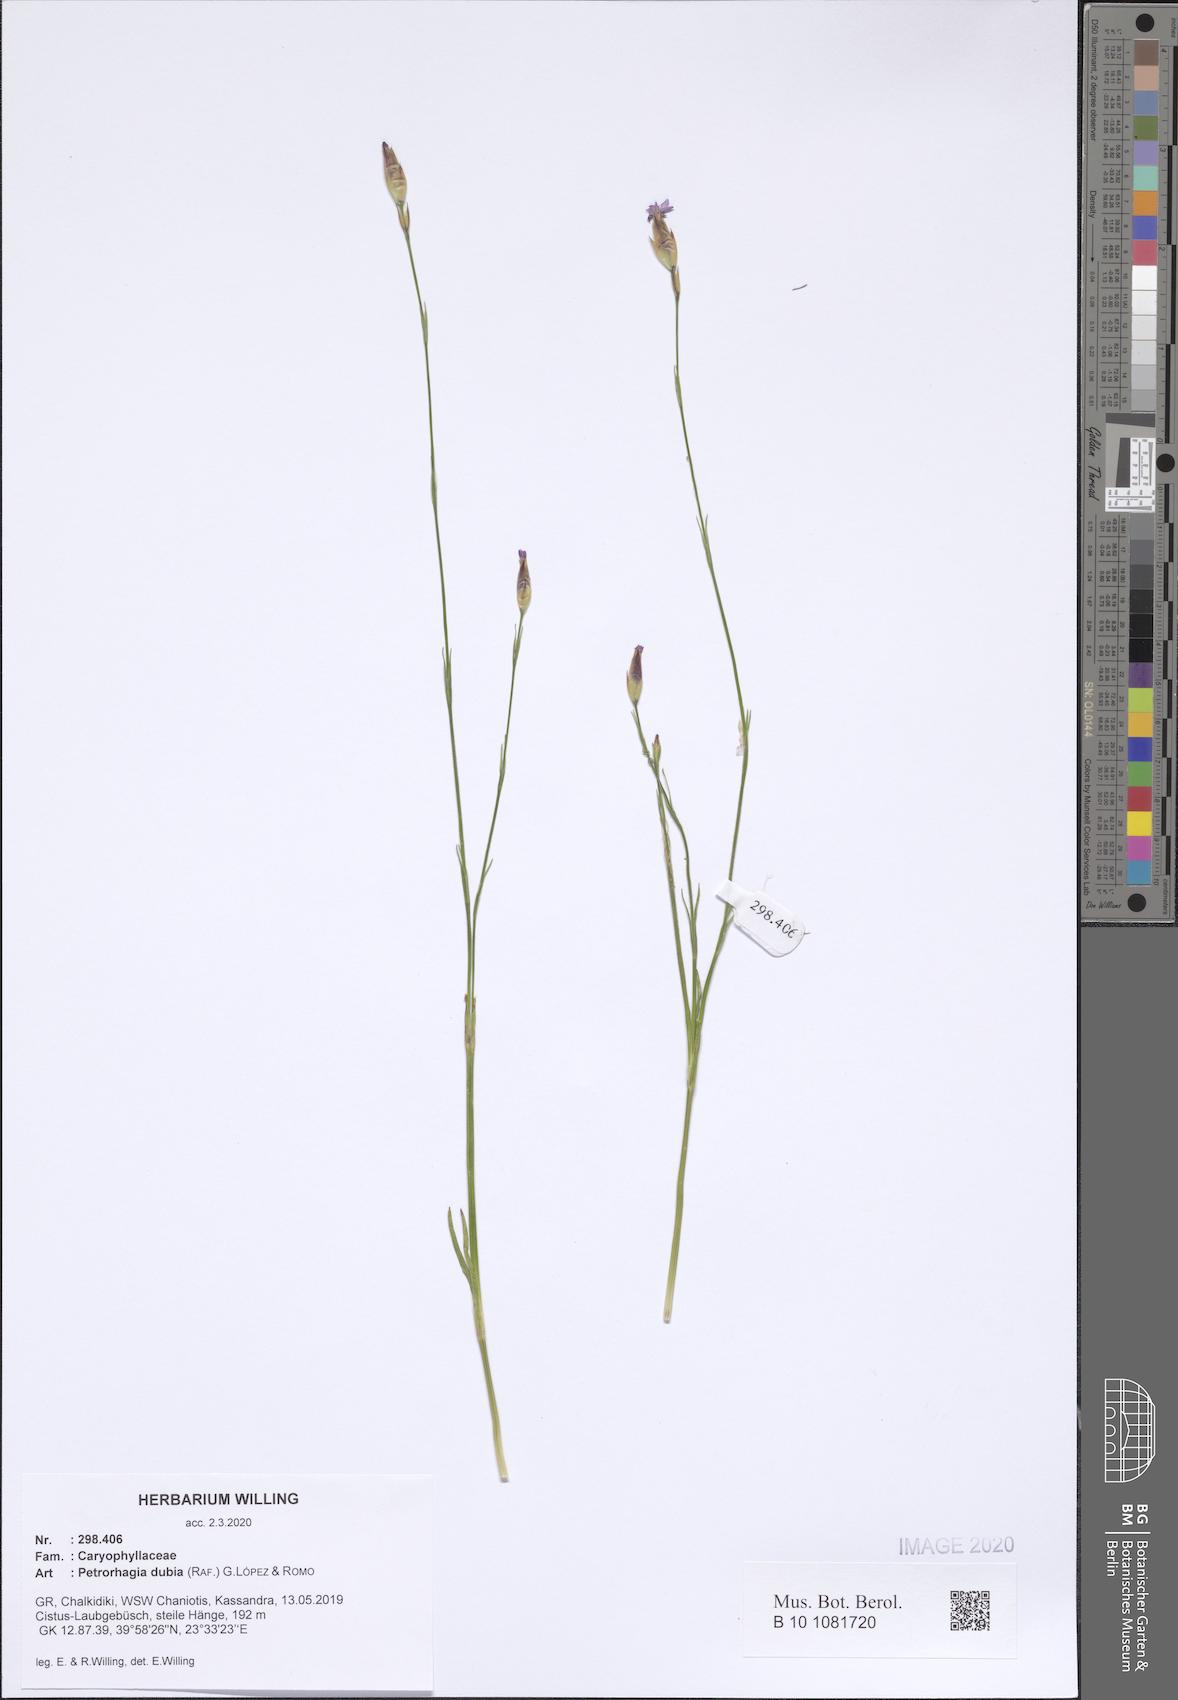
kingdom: Plantae
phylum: Tracheophyta
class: Magnoliopsida
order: Caryophyllales
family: Caryophyllaceae
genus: Petrorhagia
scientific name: Petrorhagia dubia
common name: Hairypink
